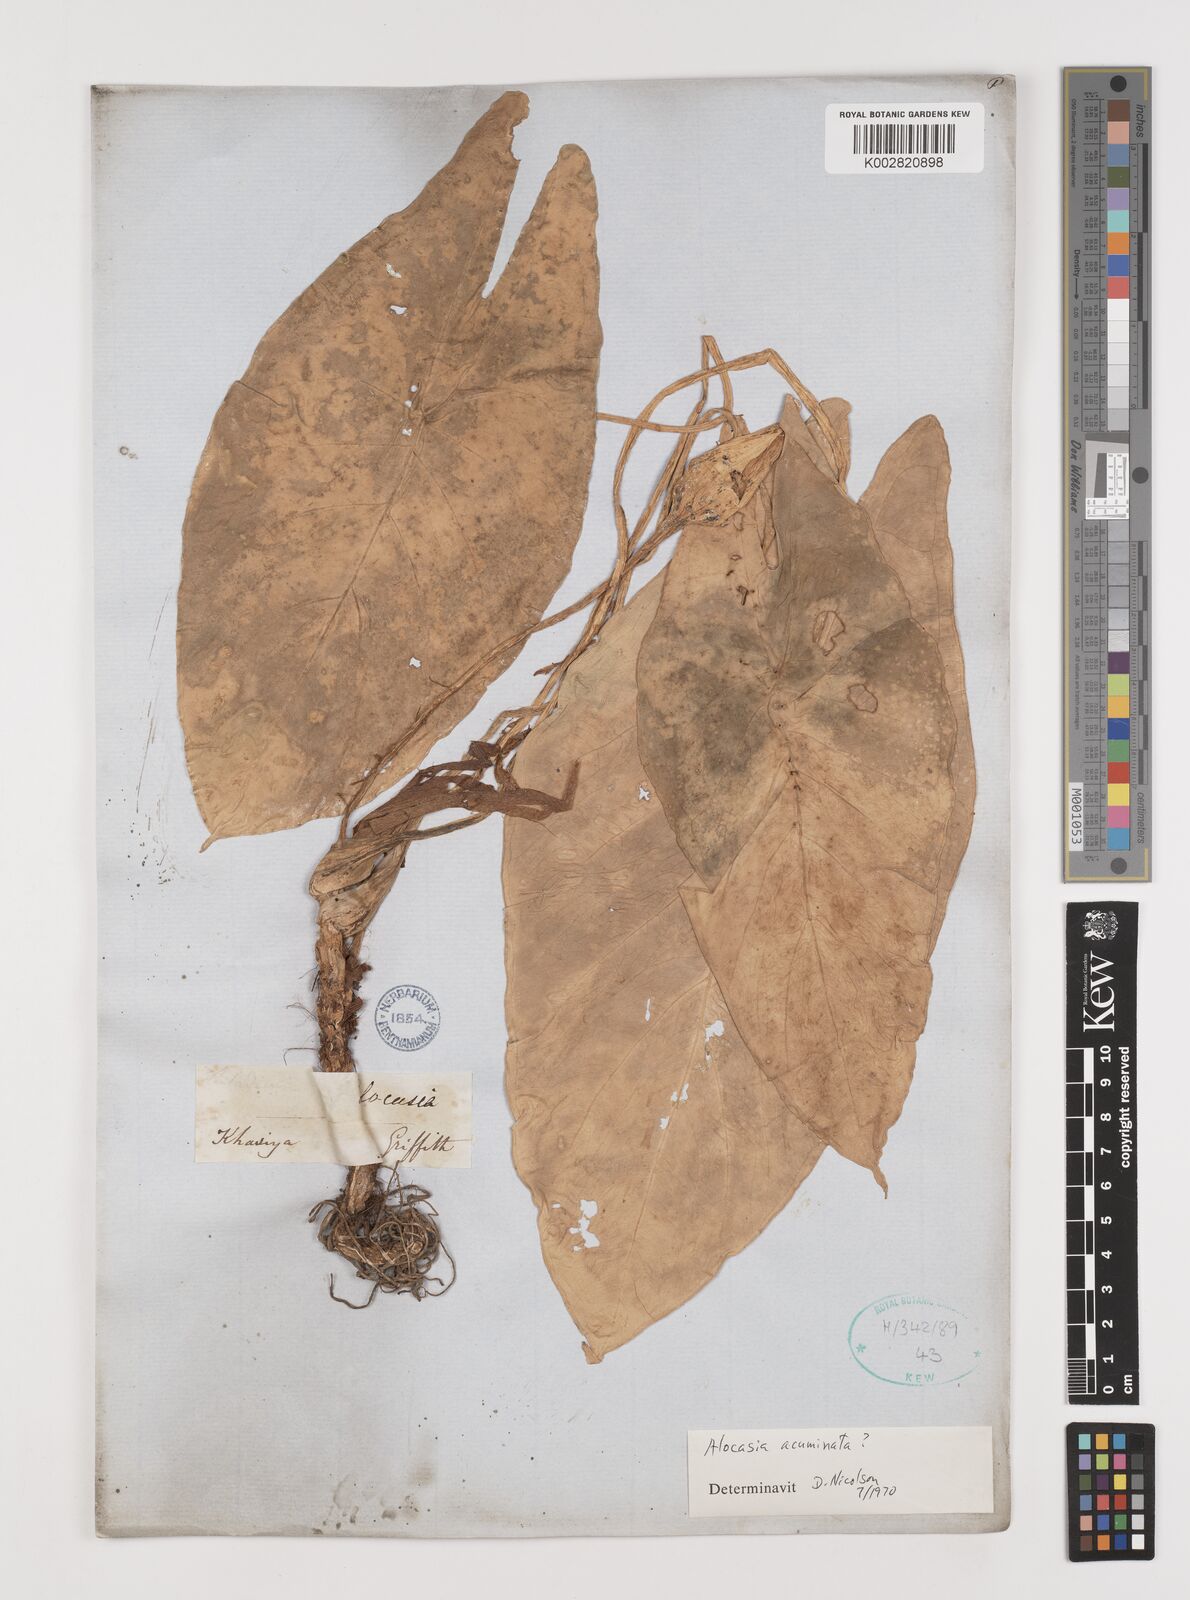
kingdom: Plantae
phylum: Tracheophyta
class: Liliopsida
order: Alismatales
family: Araceae
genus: Alocasia
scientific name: Alocasia acuminata
